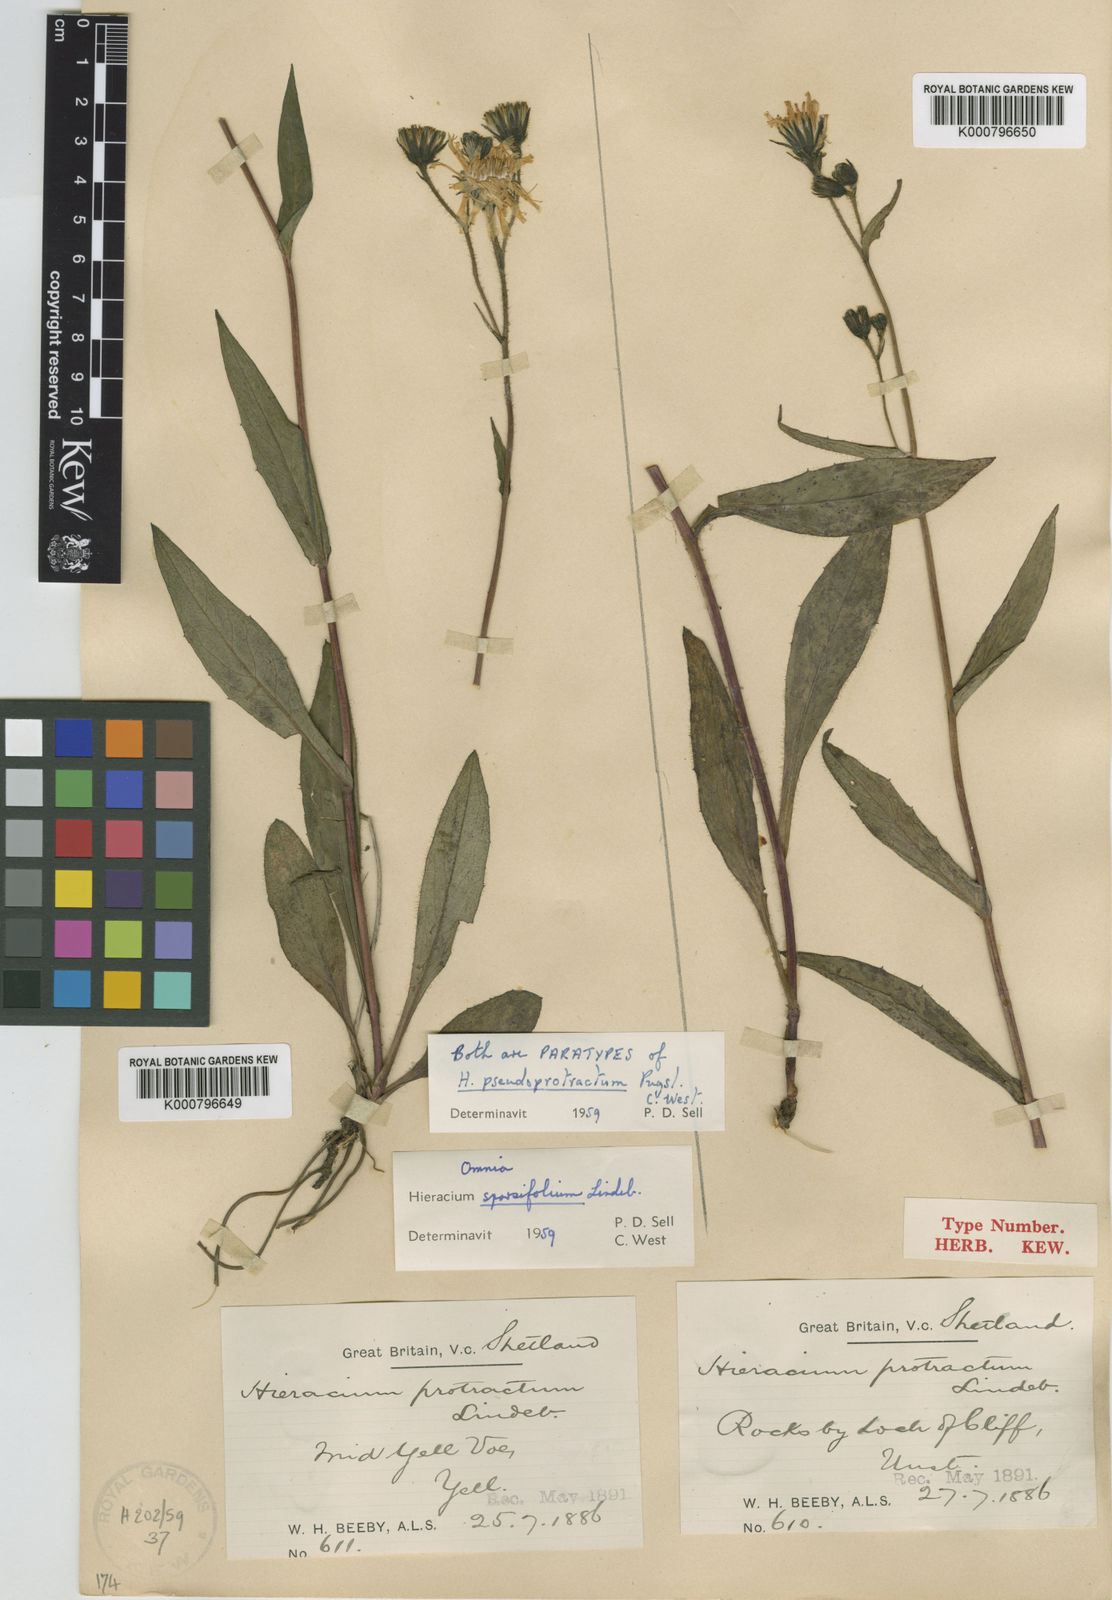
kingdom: Plantae
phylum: Tracheophyta
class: Magnoliopsida
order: Asterales
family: Asteraceae
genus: Hieracium
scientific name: Hieracium sparsifolium
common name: Sparse-leaved hawkweed
